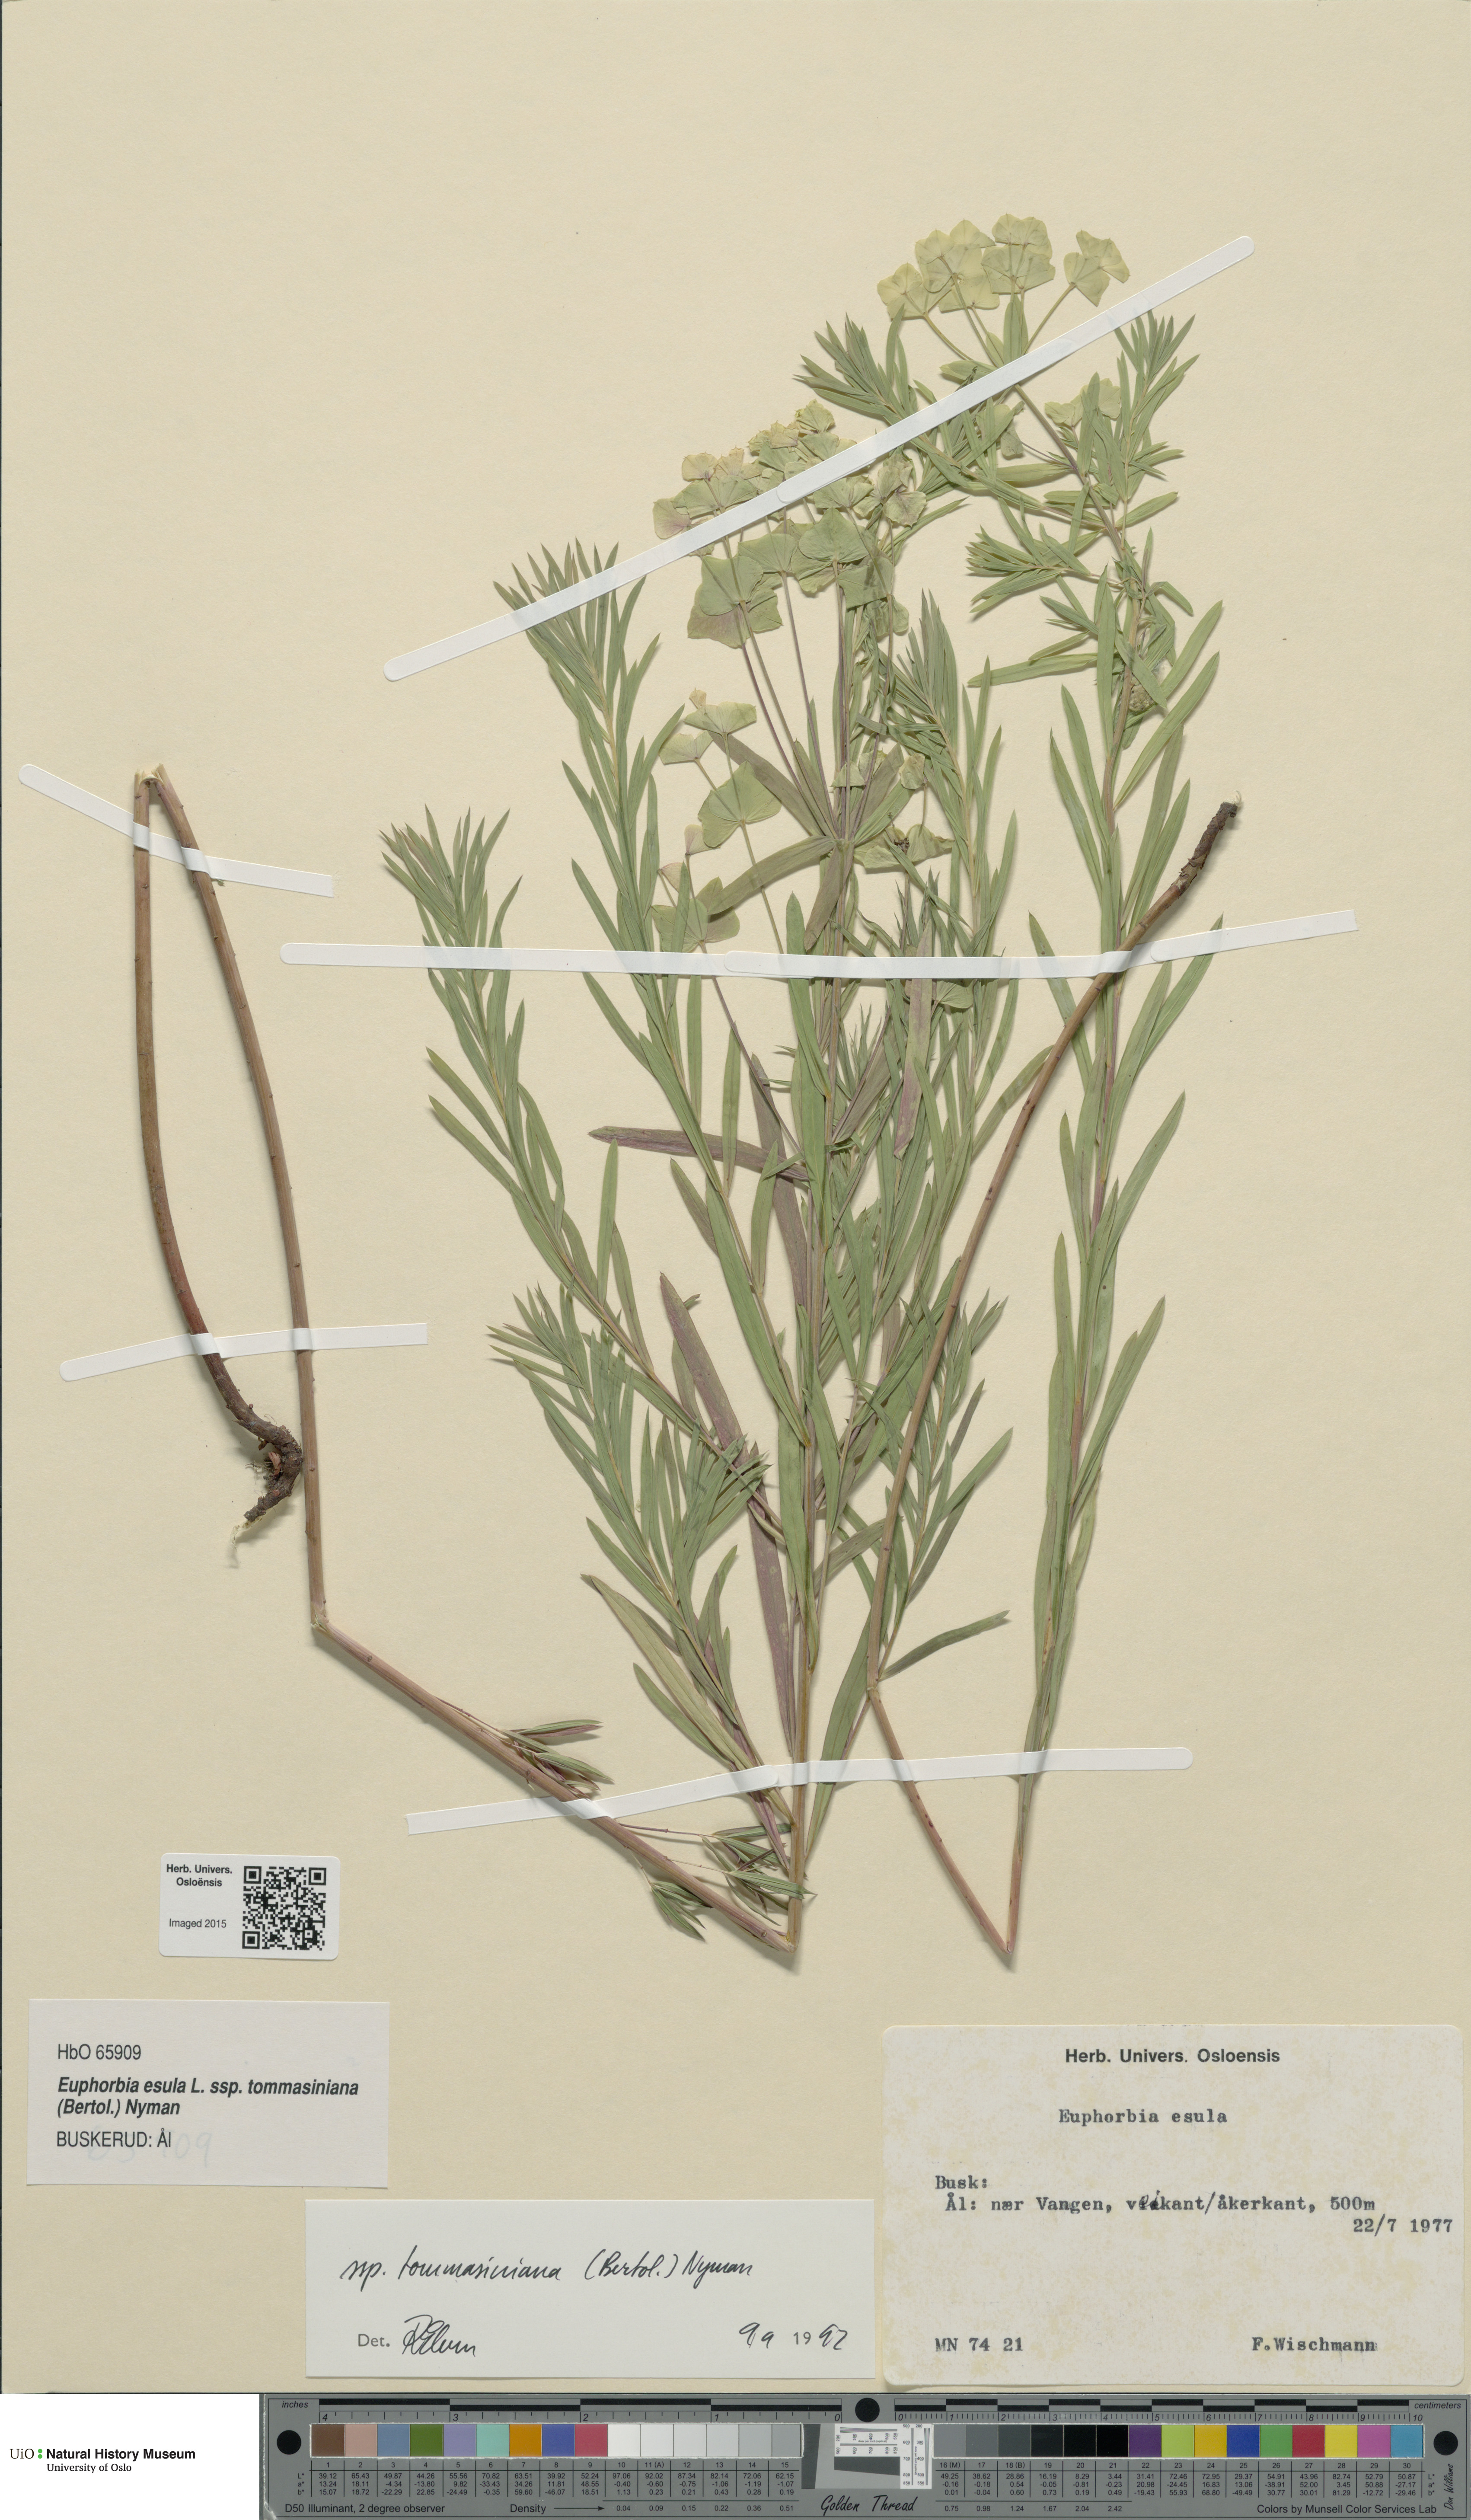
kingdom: Plantae
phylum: Tracheophyta
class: Magnoliopsida
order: Malpighiales
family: Euphorbiaceae
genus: Euphorbia
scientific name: Euphorbia tommasiniana
